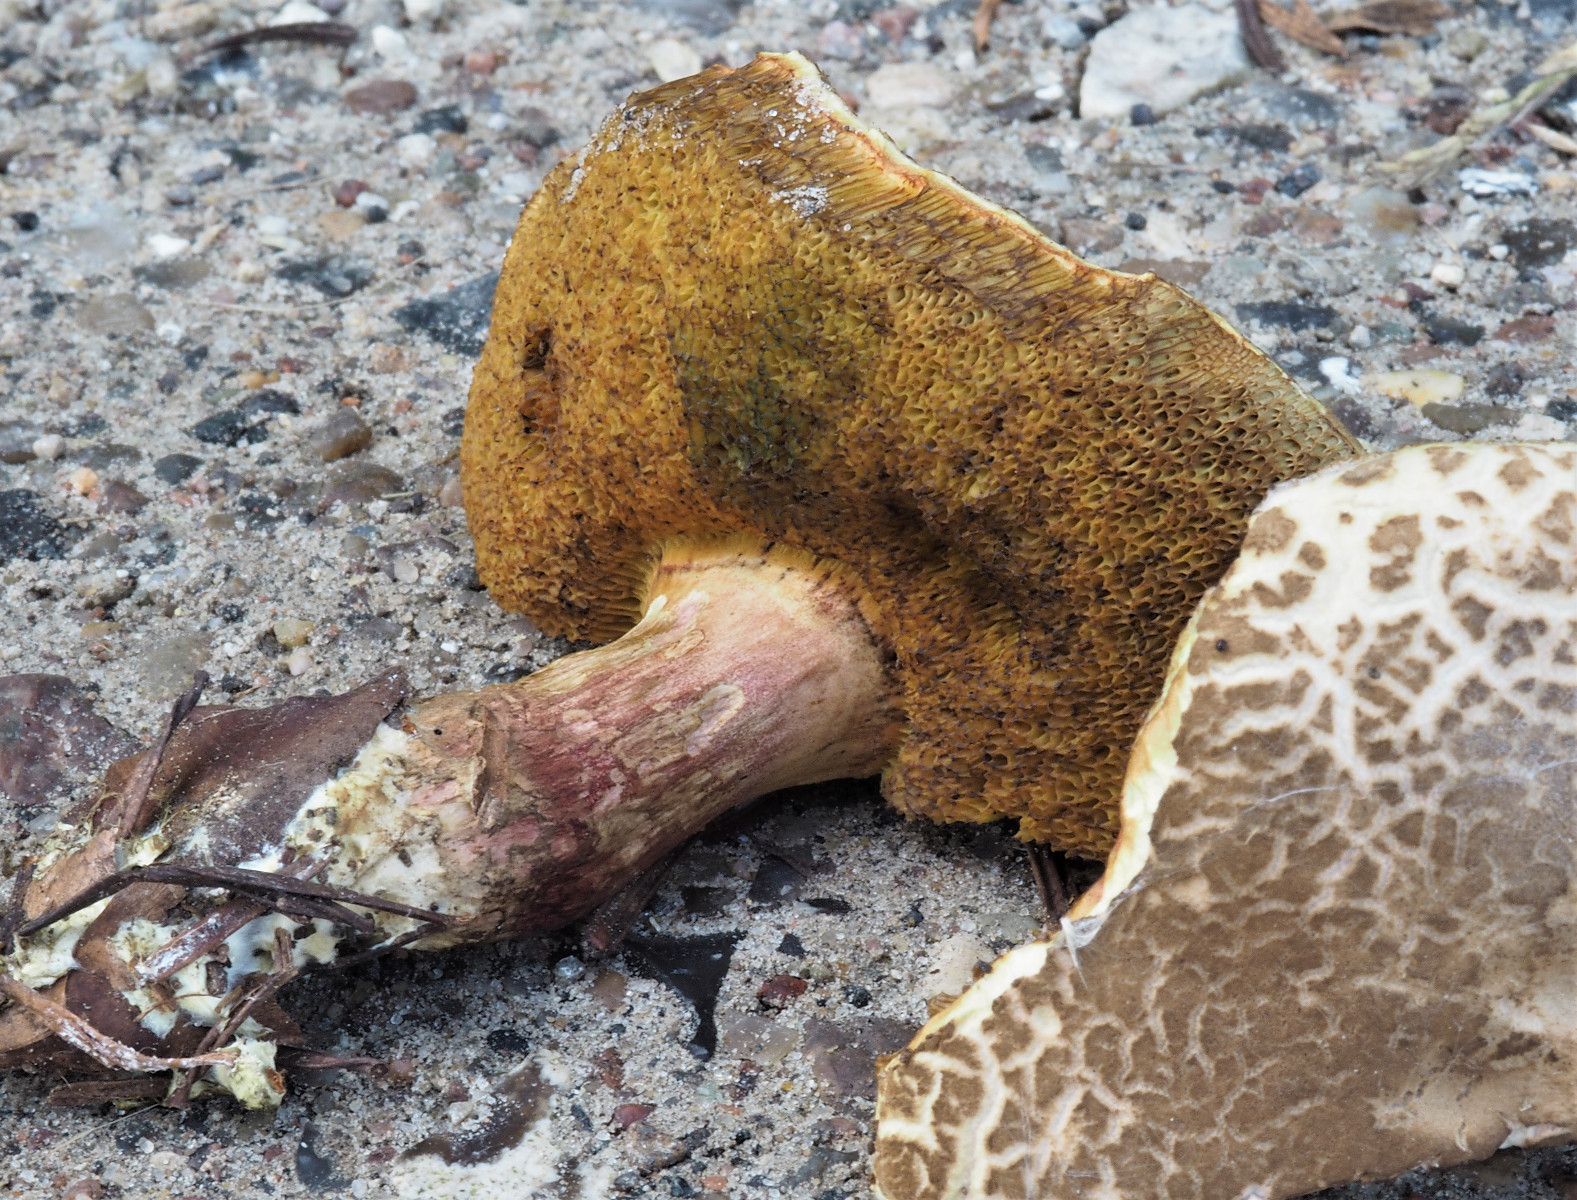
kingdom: Fungi
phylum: Basidiomycota
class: Agaricomycetes
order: Boletales
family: Boletaceae
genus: Xerocomellus
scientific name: Xerocomellus chrysenteron
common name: rødsprukken rørhat
